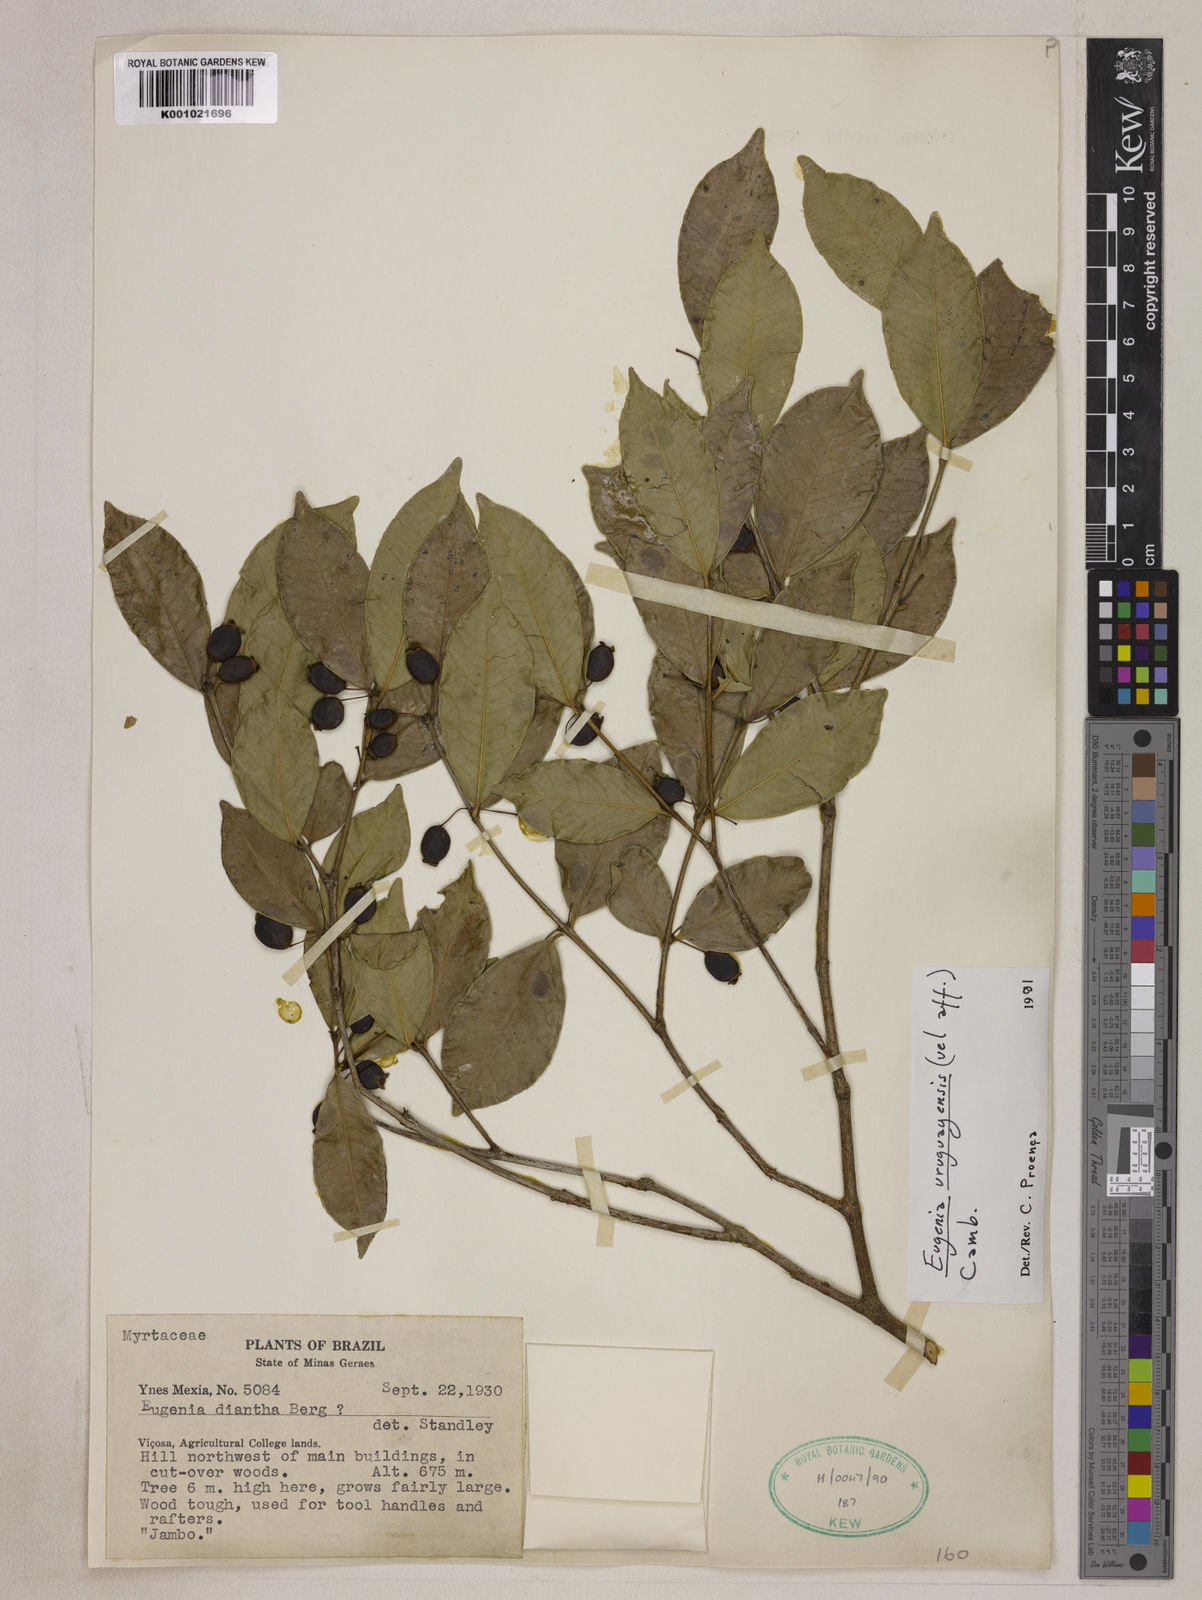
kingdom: Plantae
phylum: Tracheophyta
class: Magnoliopsida
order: Myrtales
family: Myrtaceae
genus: Eugenia
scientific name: Eugenia uruguayensis
